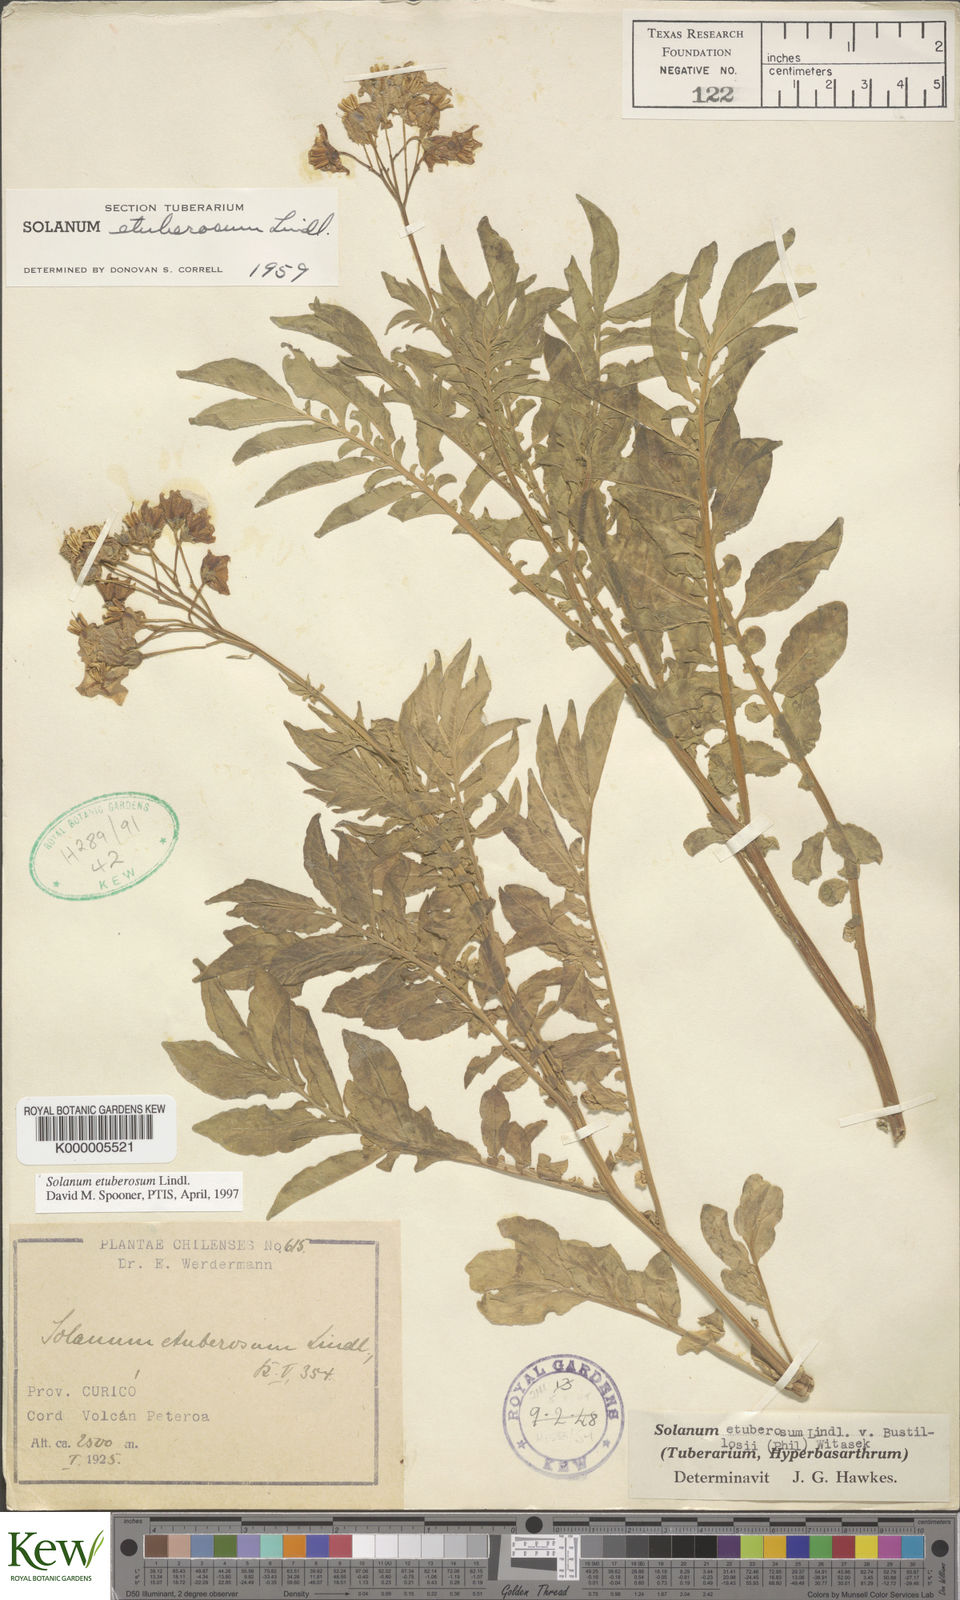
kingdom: Plantae
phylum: Tracheophyta
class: Magnoliopsida
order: Solanales
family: Solanaceae
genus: Solanum
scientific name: Solanum etuberosum
